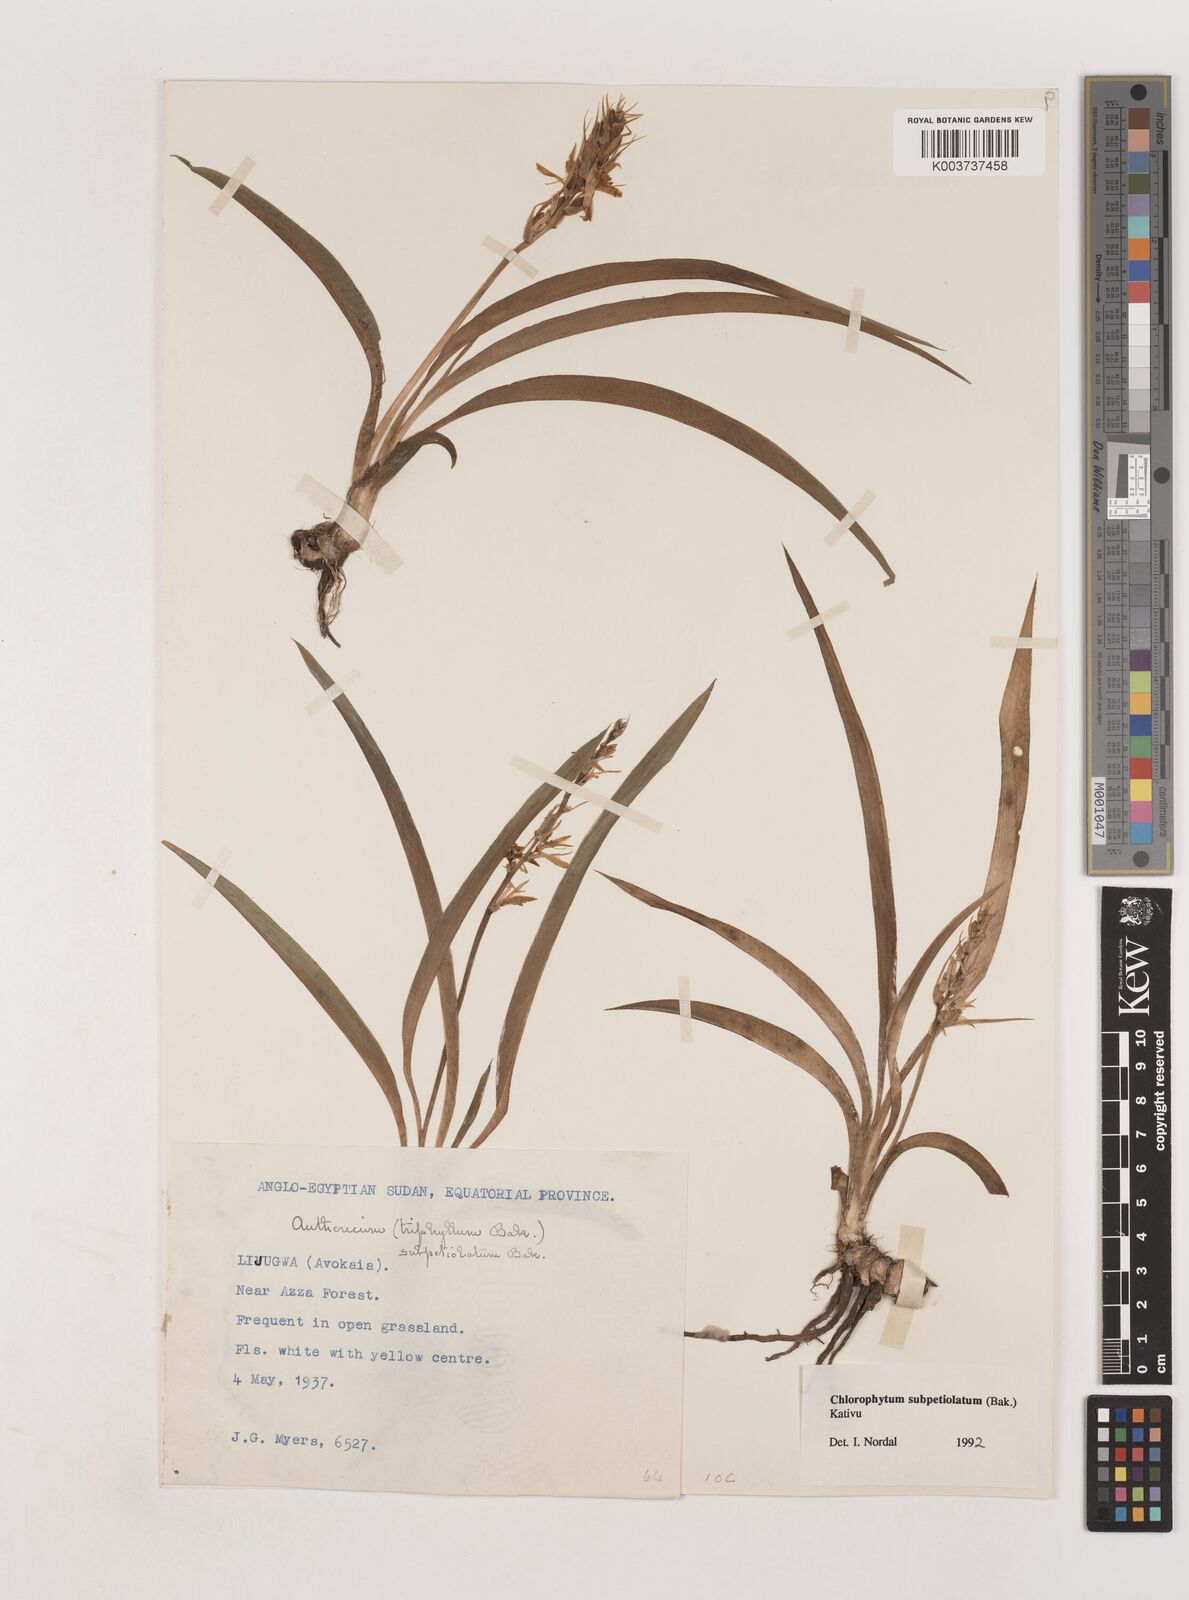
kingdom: Plantae
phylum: Tracheophyta
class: Liliopsida
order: Asparagales
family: Asparagaceae
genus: Chlorophytum
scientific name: Chlorophytum subpetiolatum
